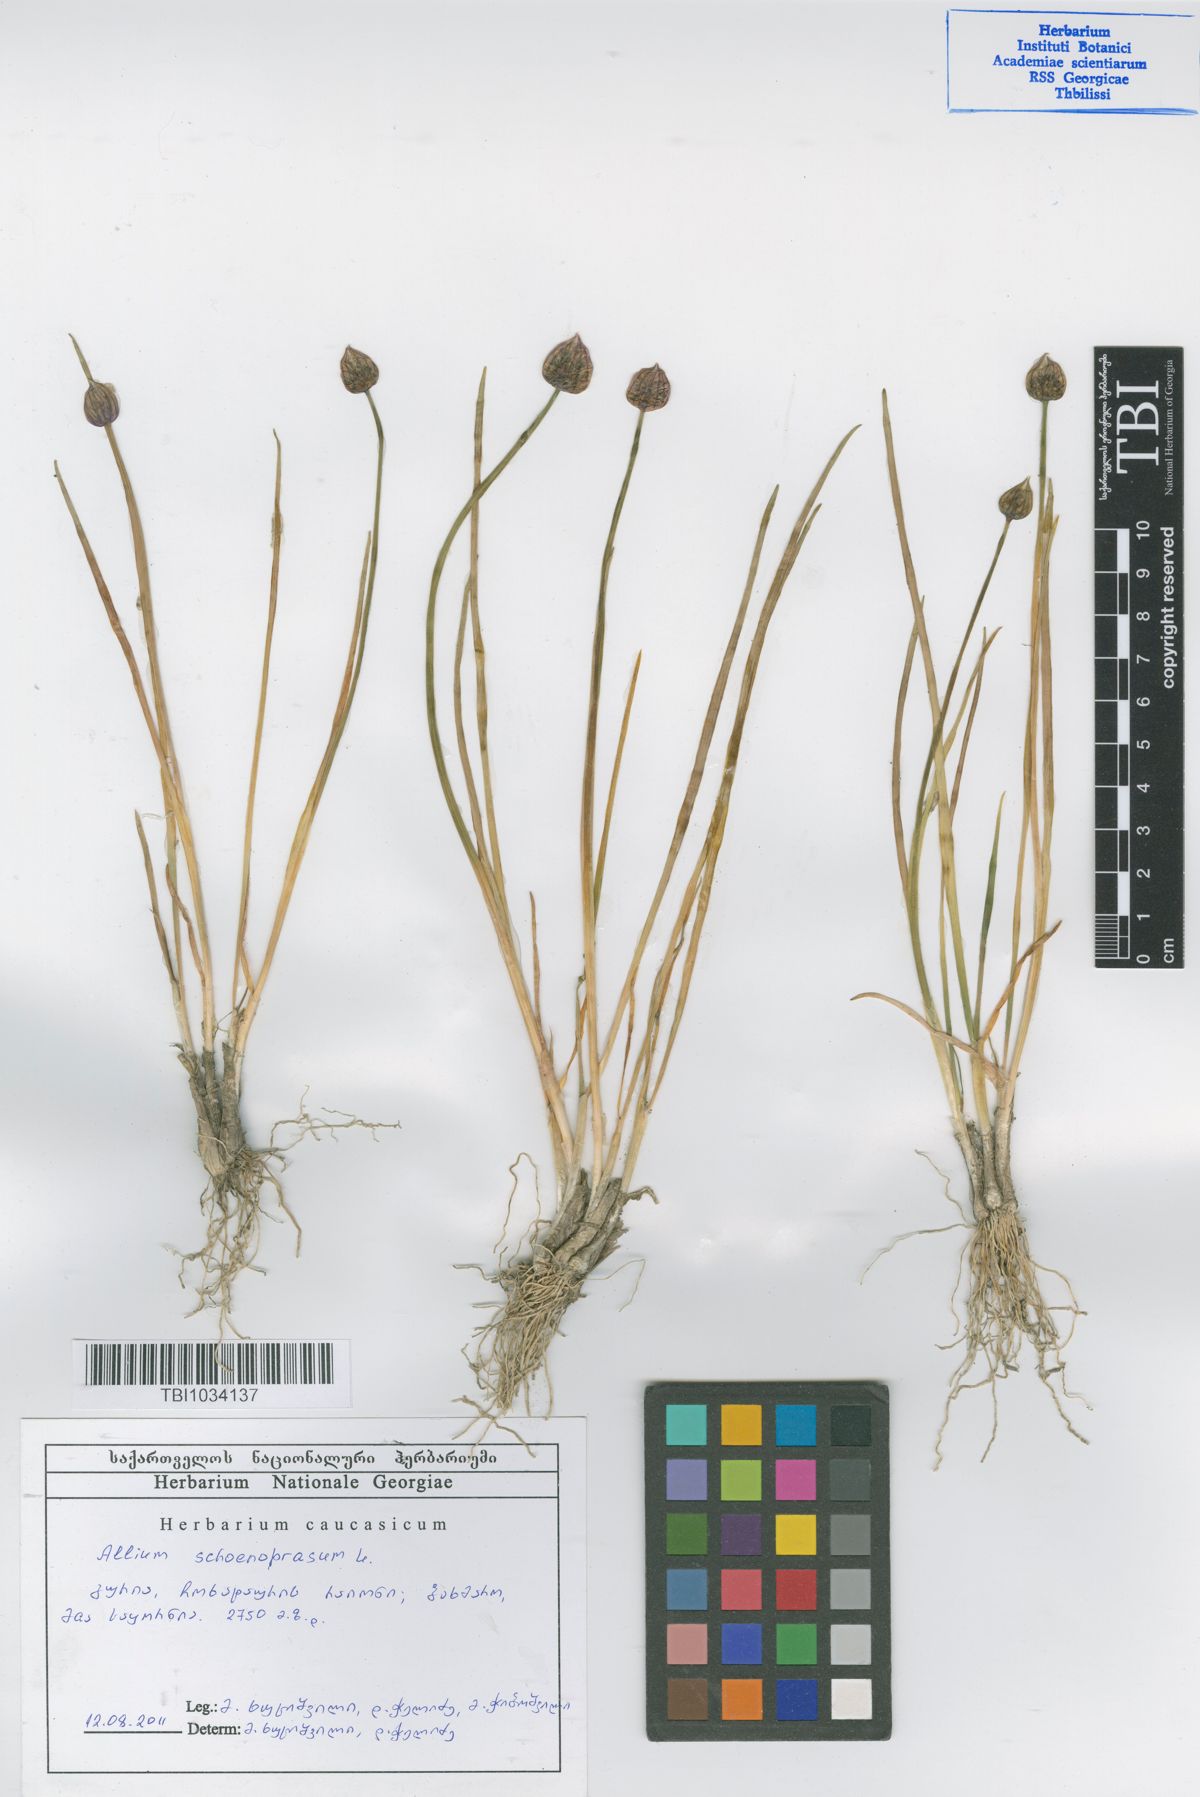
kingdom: Plantae
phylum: Tracheophyta
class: Liliopsida
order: Asparagales
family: Amaryllidaceae
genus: Allium
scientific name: Allium schoenoprasum
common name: Chives
